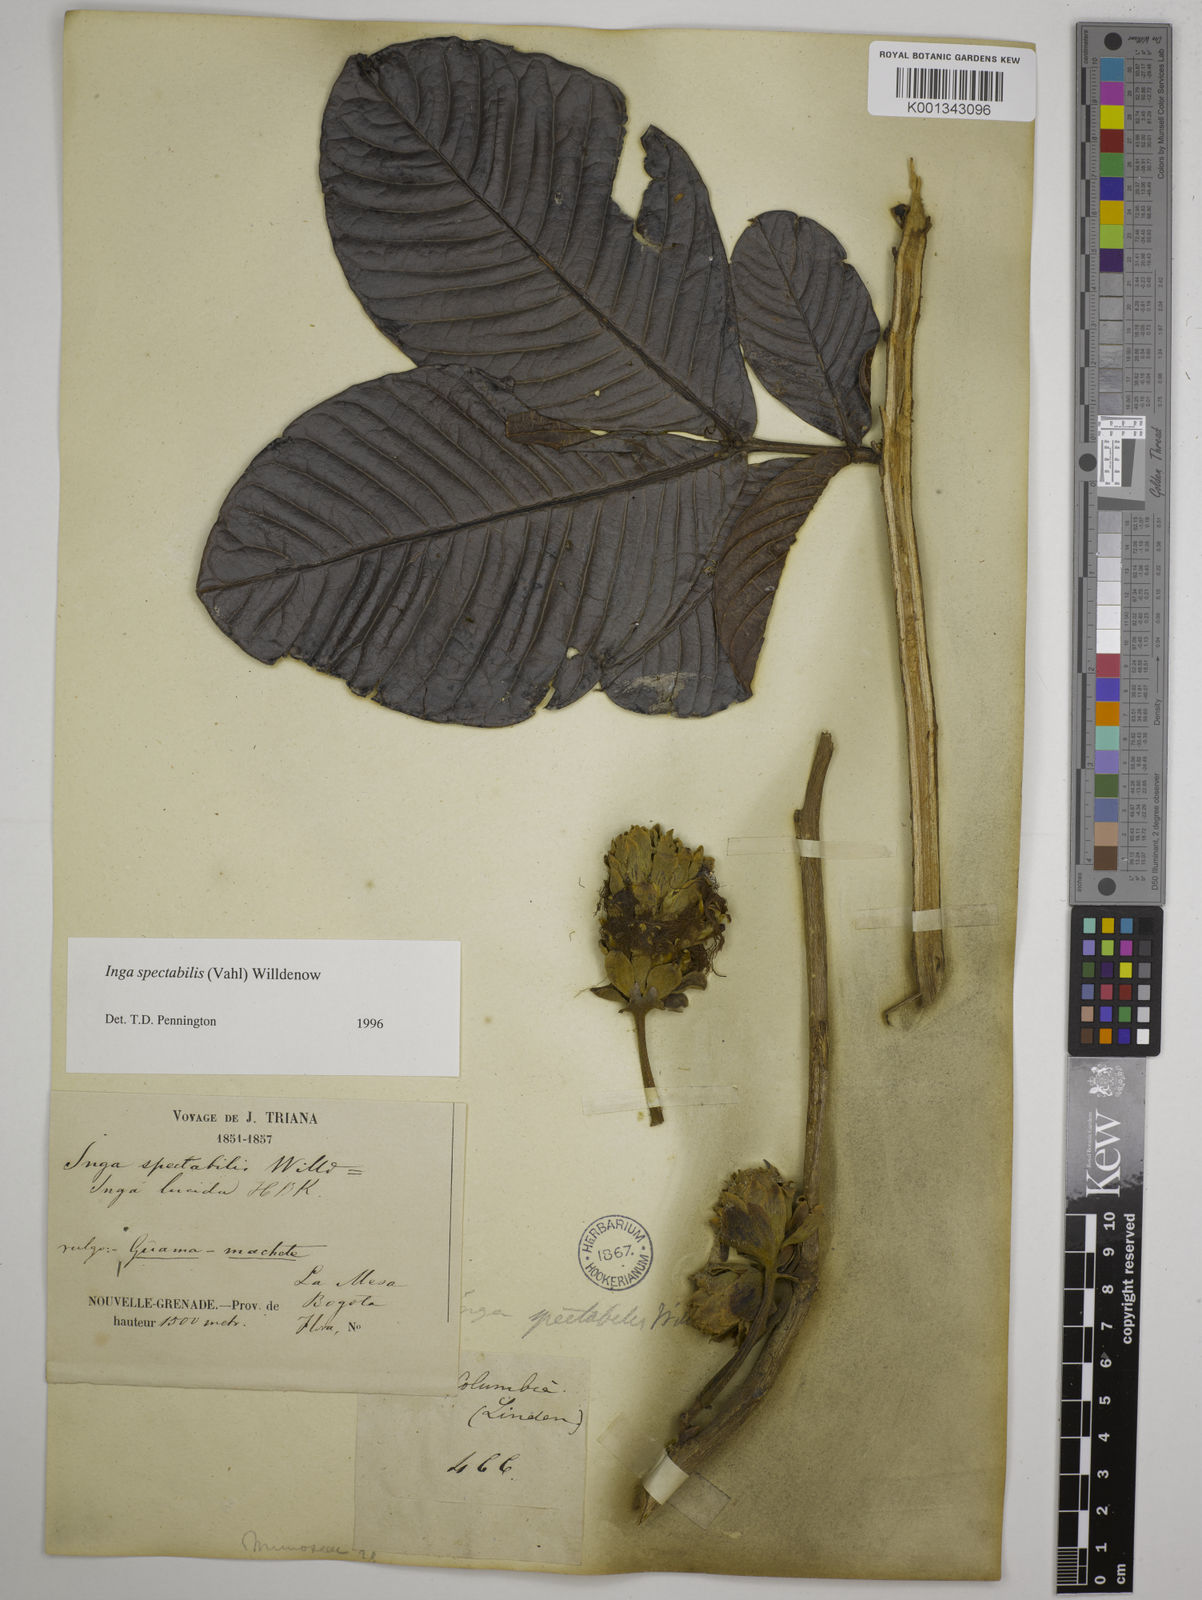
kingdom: Plantae
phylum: Tracheophyta
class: Magnoliopsida
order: Fabales
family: Fabaceae
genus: Inga
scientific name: Inga spectabilis
